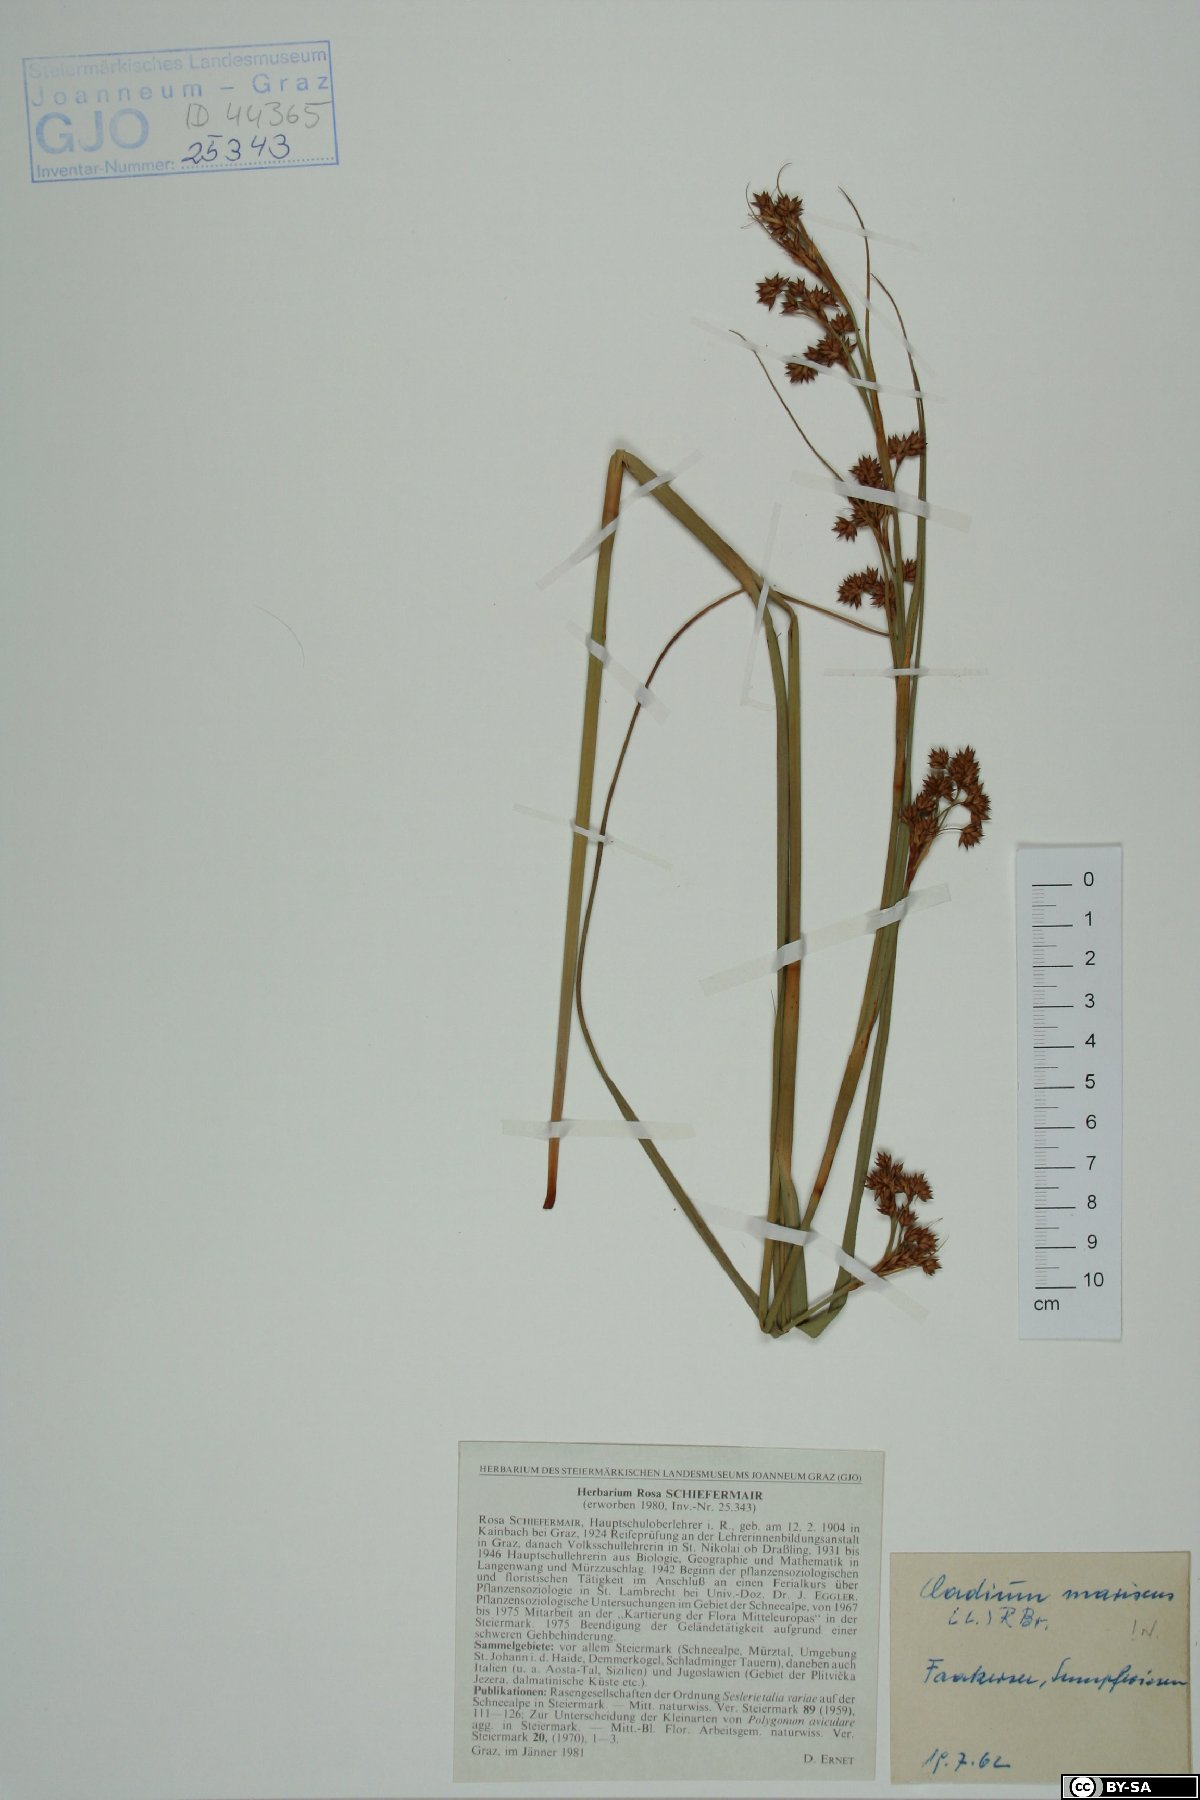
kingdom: Plantae
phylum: Tracheophyta
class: Liliopsida
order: Poales
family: Cyperaceae
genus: Cladium
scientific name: Cladium mariscus
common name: Great fen-sedge
